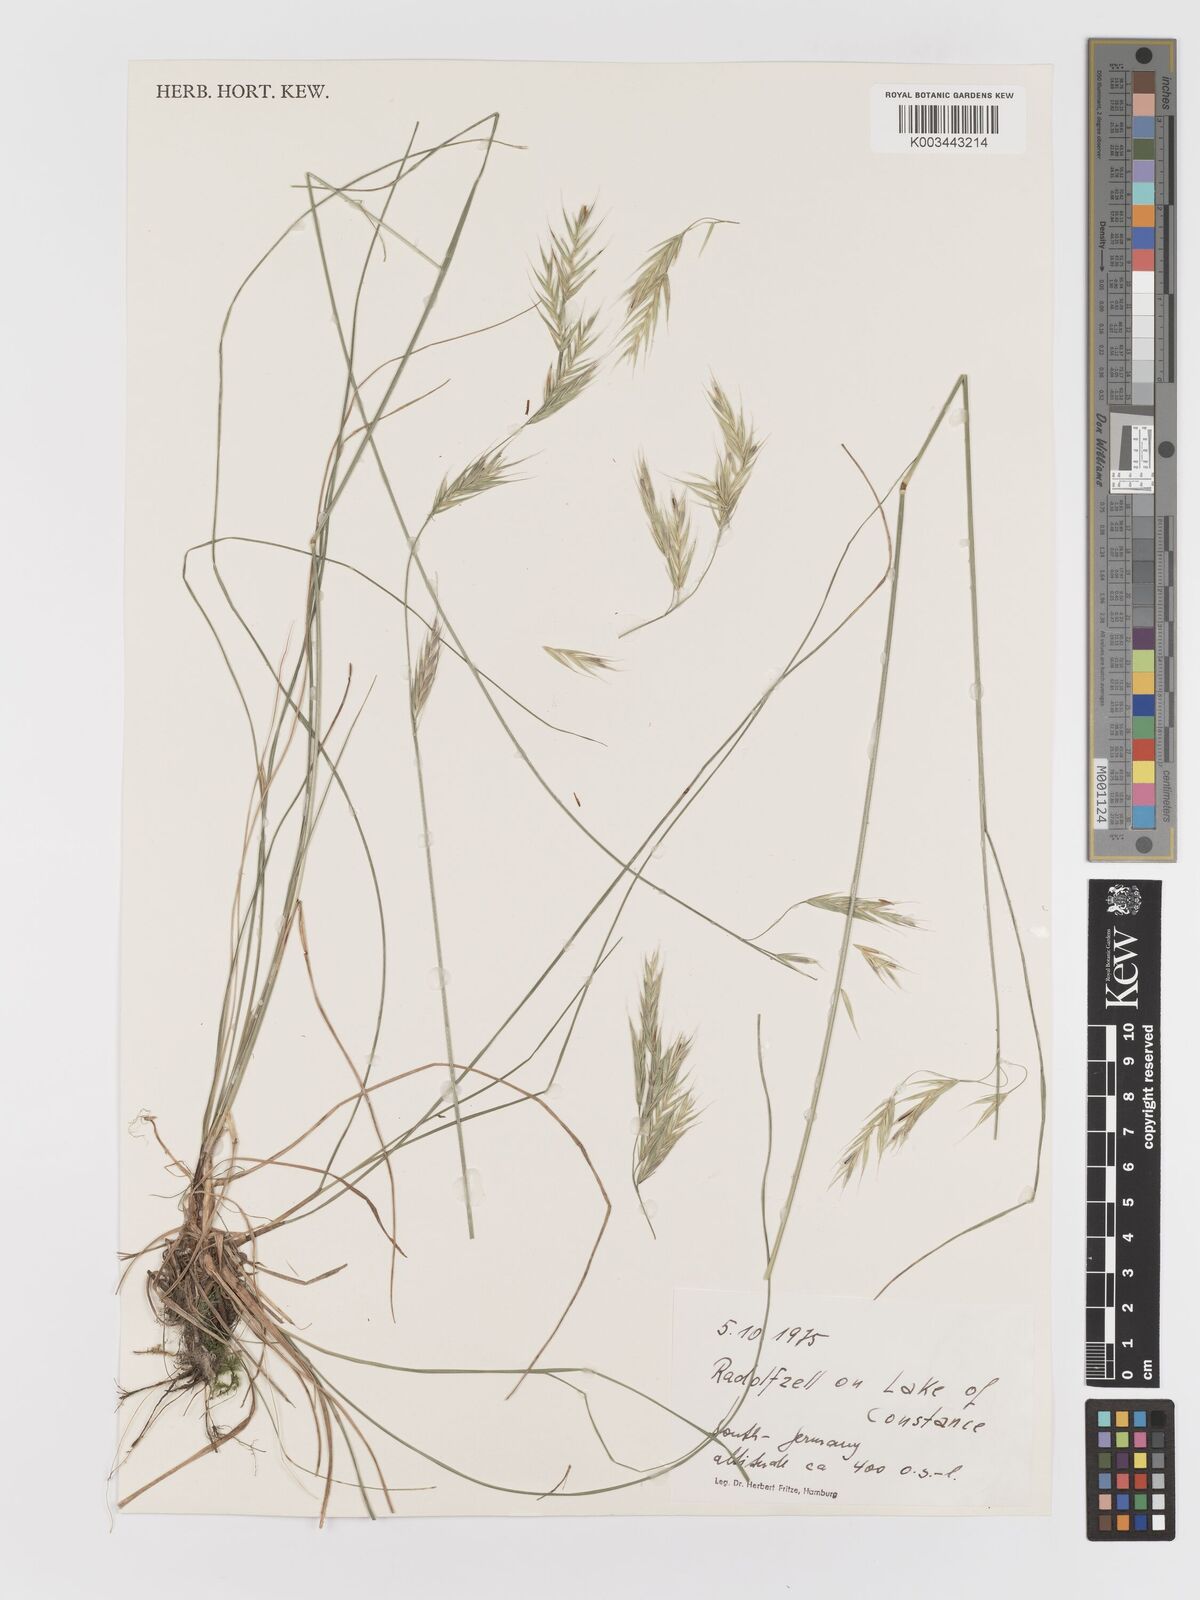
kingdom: Plantae
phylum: Tracheophyta
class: Liliopsida
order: Poales
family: Poaceae
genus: Bromus
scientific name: Bromus
